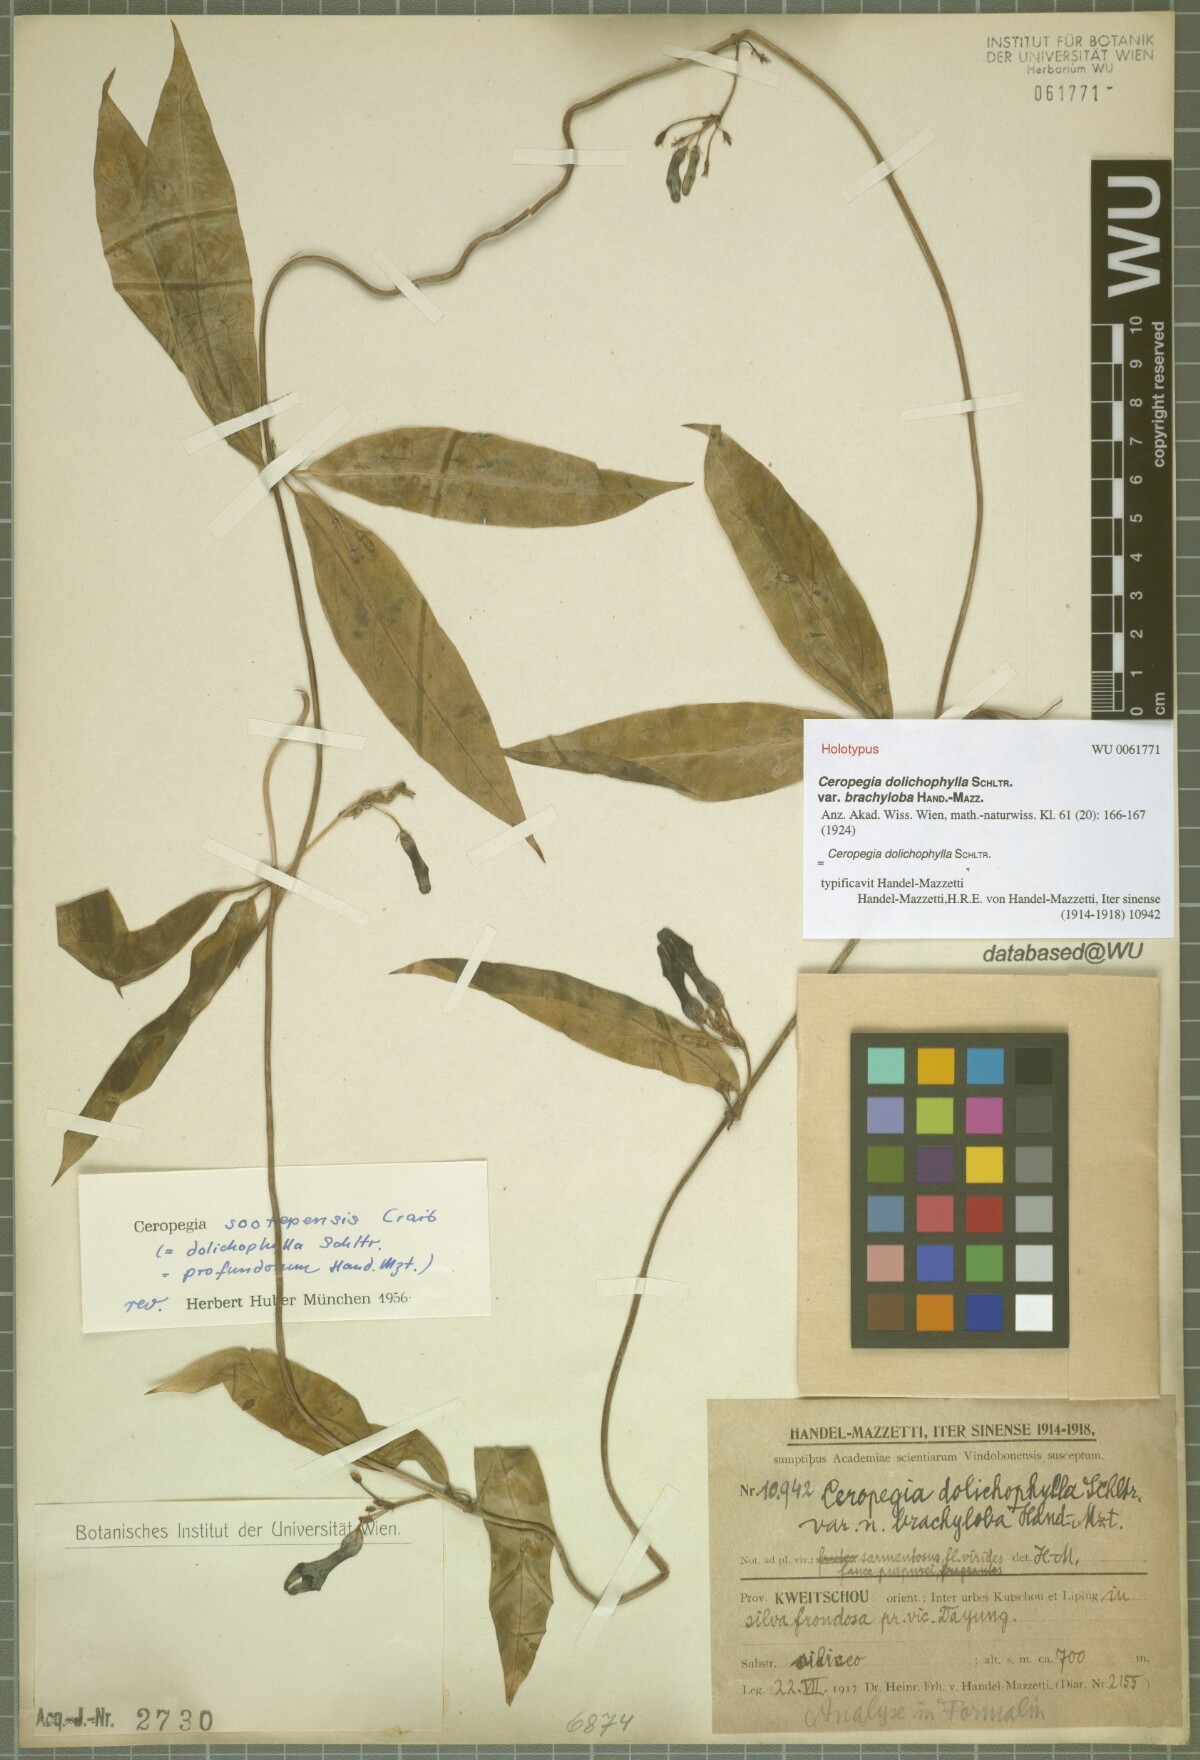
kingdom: Plantae
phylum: Tracheophyta
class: Magnoliopsida
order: Gentianales
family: Apocynaceae
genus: Ceropegia
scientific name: Ceropegia dolichophylla
